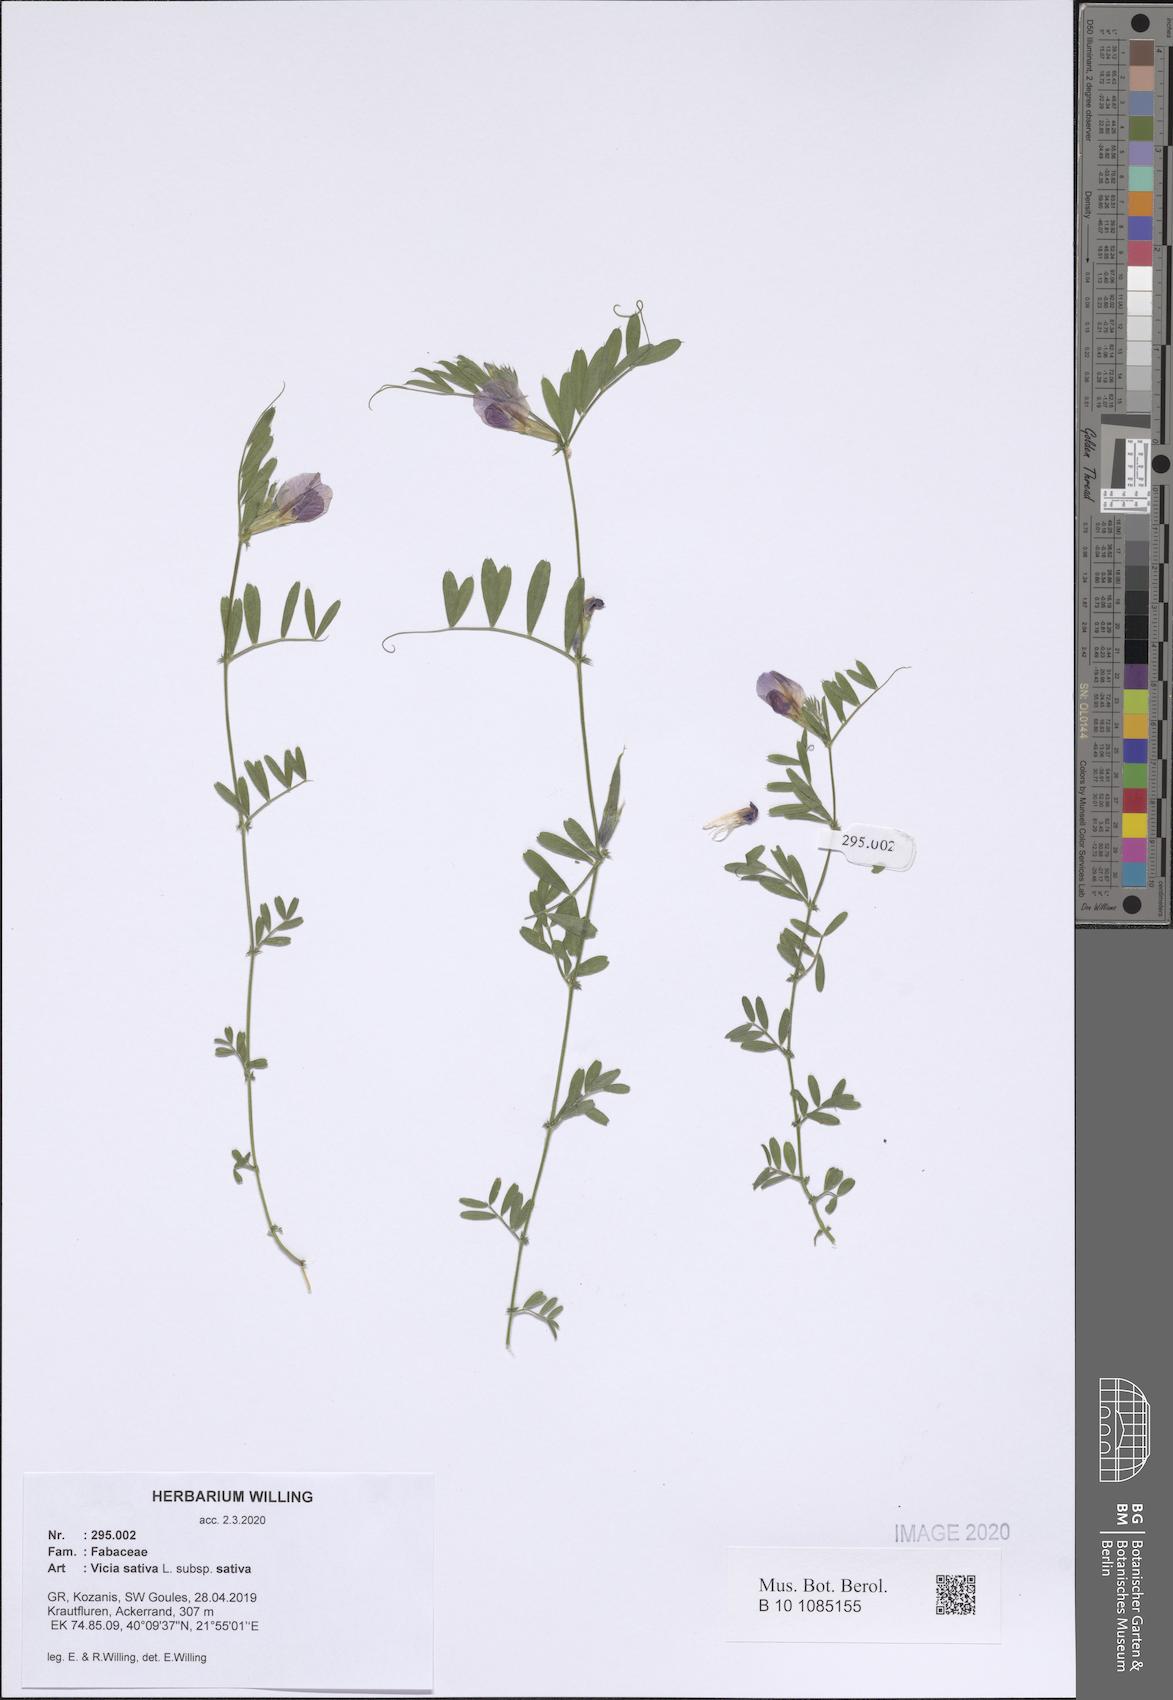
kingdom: Plantae
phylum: Tracheophyta
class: Magnoliopsida
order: Fabales
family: Fabaceae
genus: Vicia
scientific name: Vicia sativa
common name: Garden vetch
